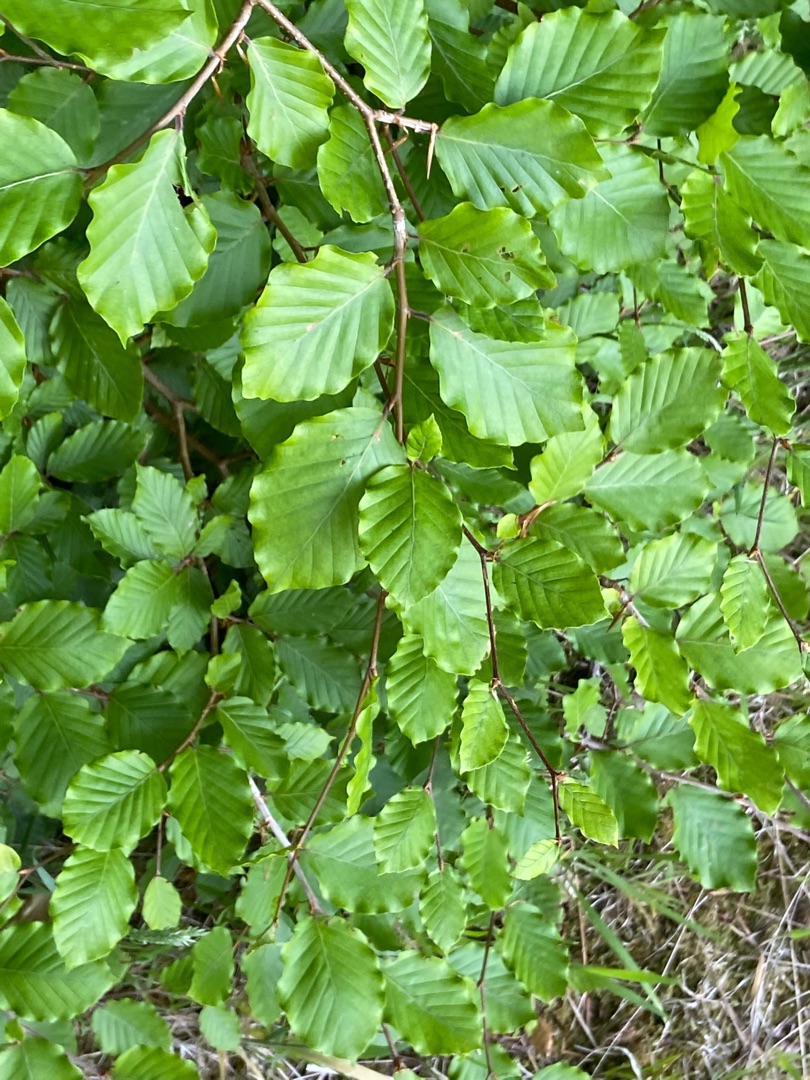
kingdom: Plantae
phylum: Tracheophyta
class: Magnoliopsida
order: Fagales
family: Fagaceae
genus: Fagus
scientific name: Fagus sylvatica
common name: Bøg
